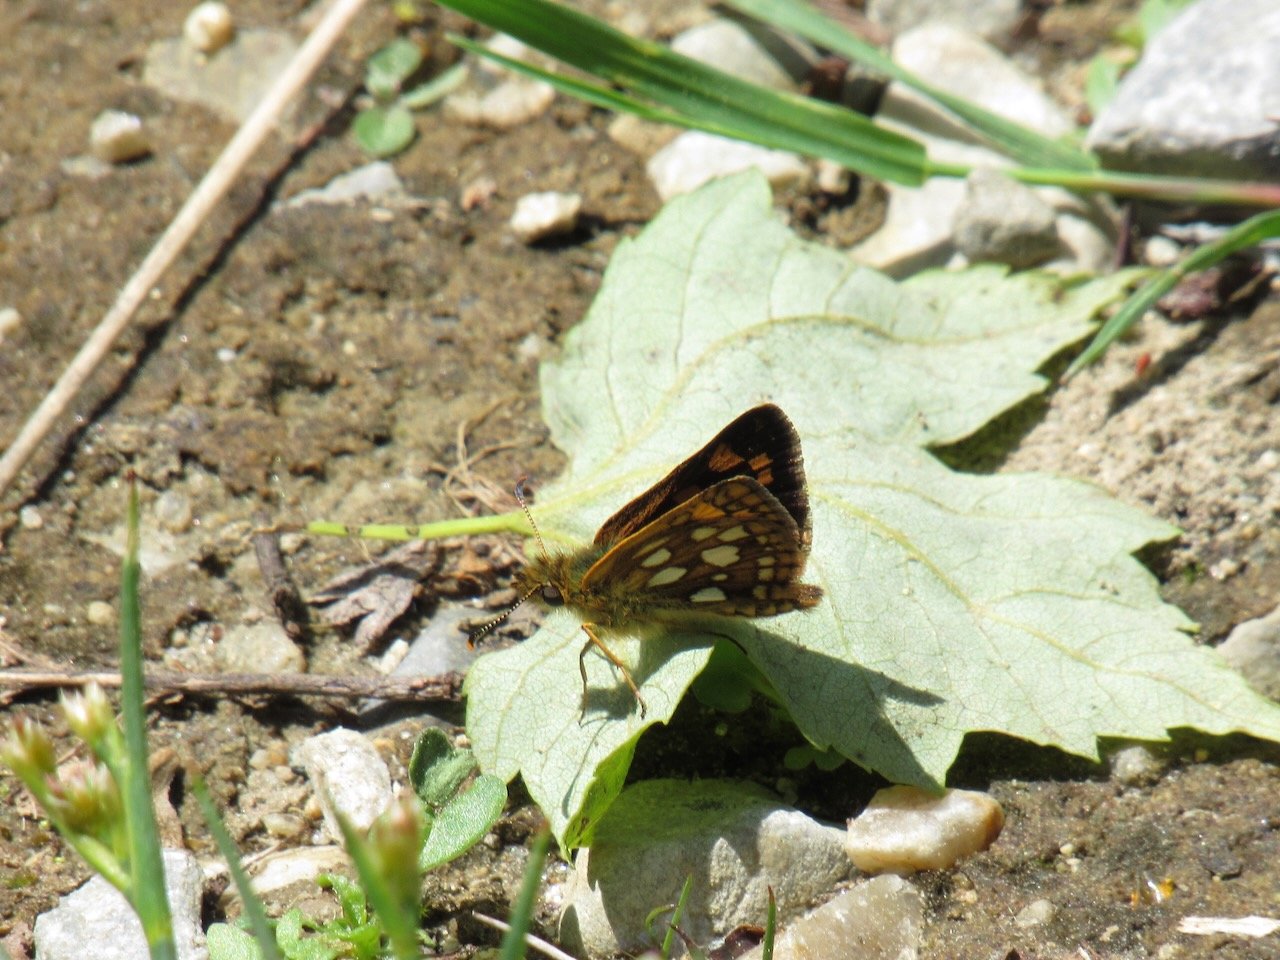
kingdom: Animalia
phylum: Arthropoda
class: Insecta
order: Lepidoptera
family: Hesperiidae
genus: Carterocephalus
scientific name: Carterocephalus palaemon
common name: Chequered Skipper
